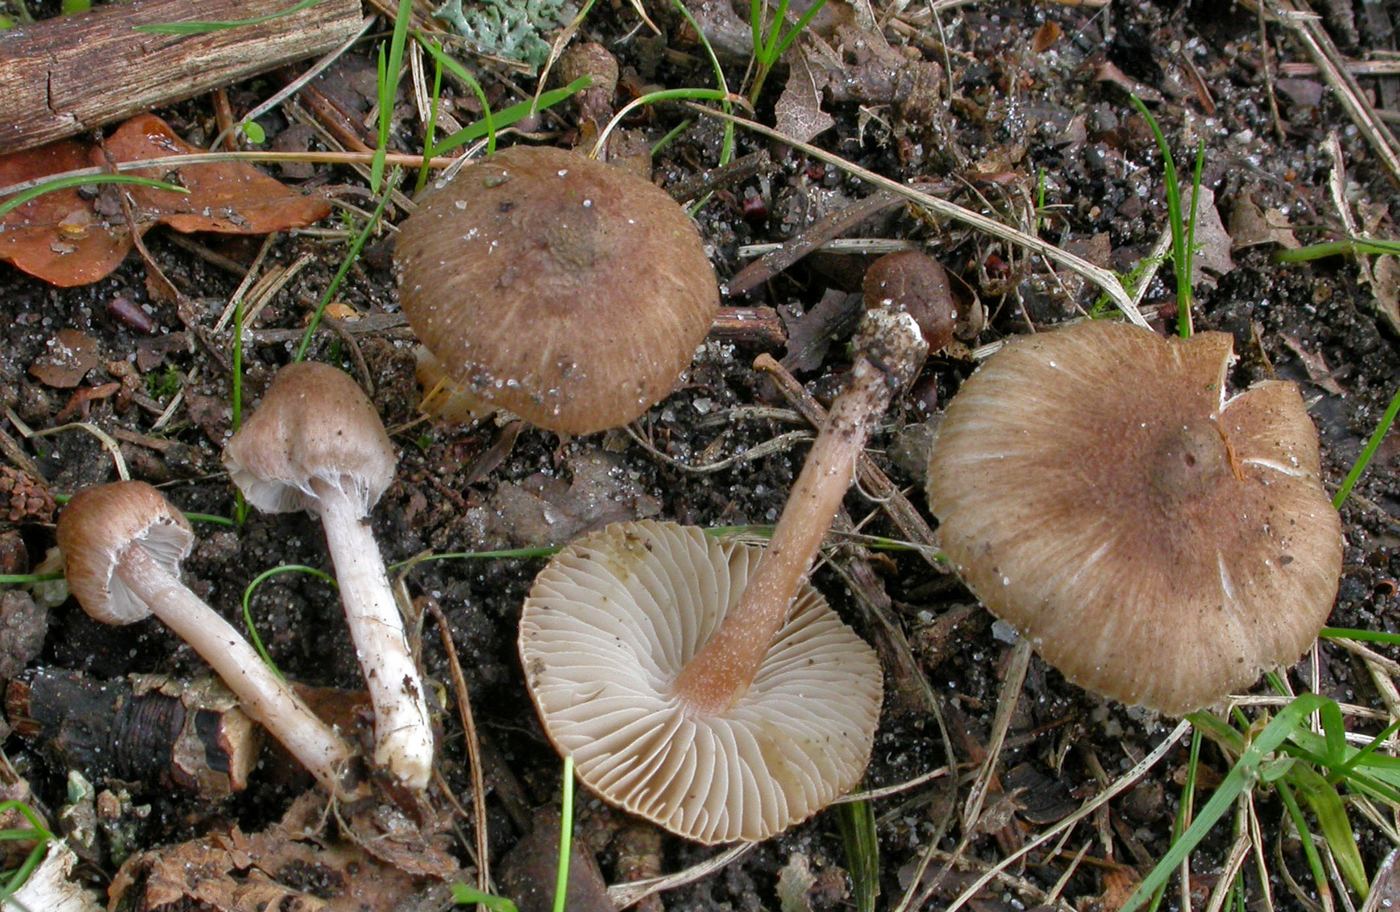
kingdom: Fungi
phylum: Basidiomycota
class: Agaricomycetes
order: Agaricales
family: Inocybaceae
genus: Inocybe
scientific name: Inocybe
